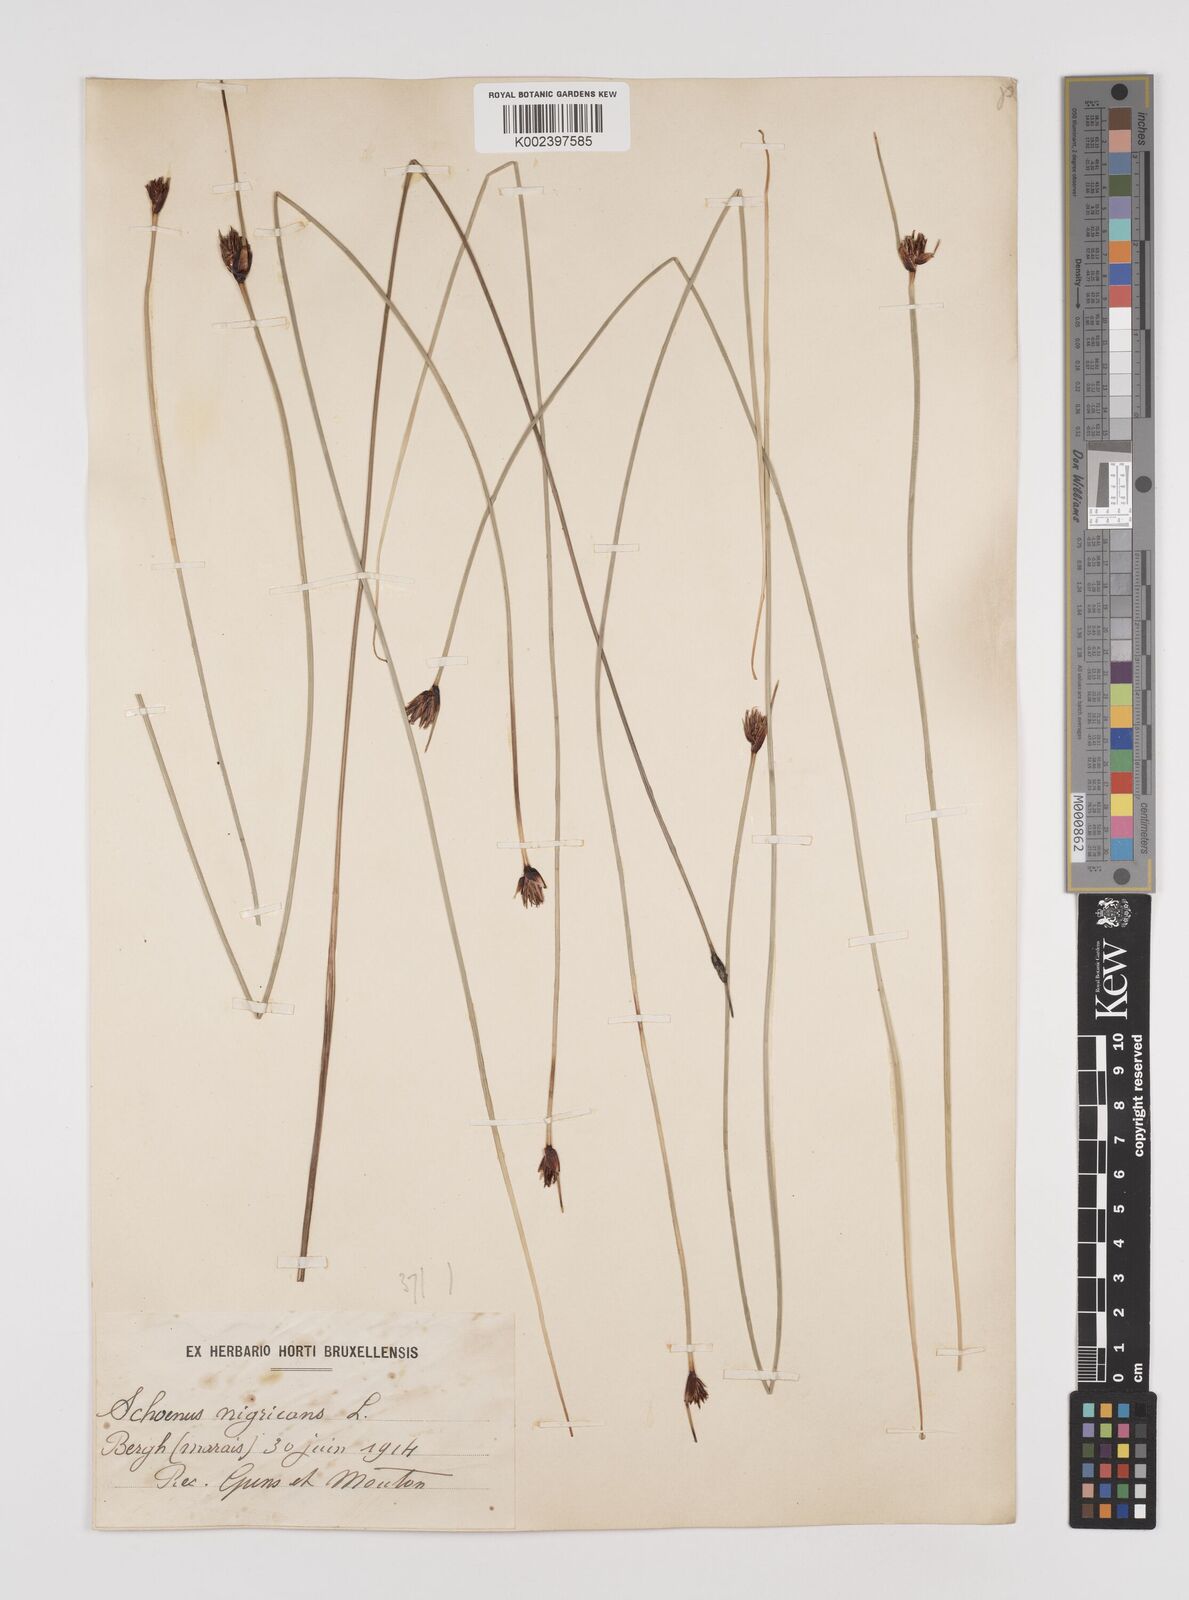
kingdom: Plantae
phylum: Tracheophyta
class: Liliopsida
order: Poales
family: Cyperaceae
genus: Schoenus
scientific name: Schoenus nigricans
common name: Black bog-rush
